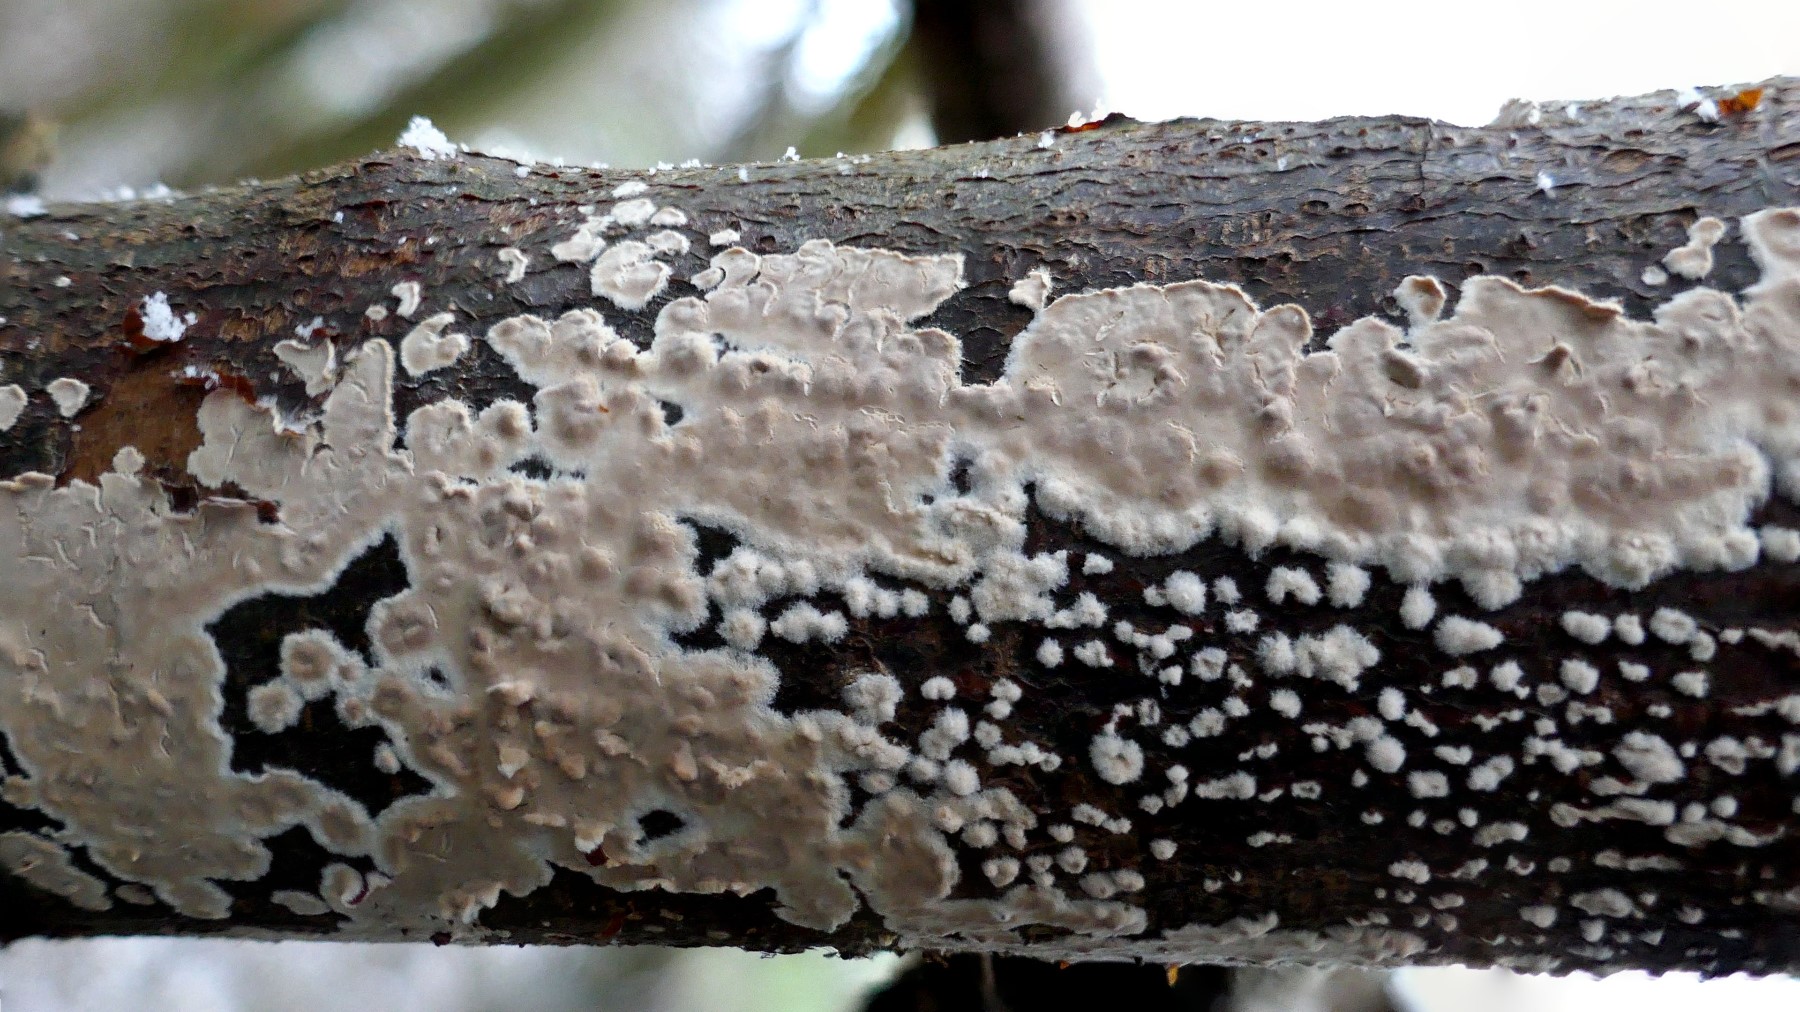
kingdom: Fungi
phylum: Basidiomycota
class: Agaricomycetes
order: Agaricales
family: Physalacriaceae
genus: Cylindrobasidium
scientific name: Cylindrobasidium evolvens
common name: sprækkehinde
